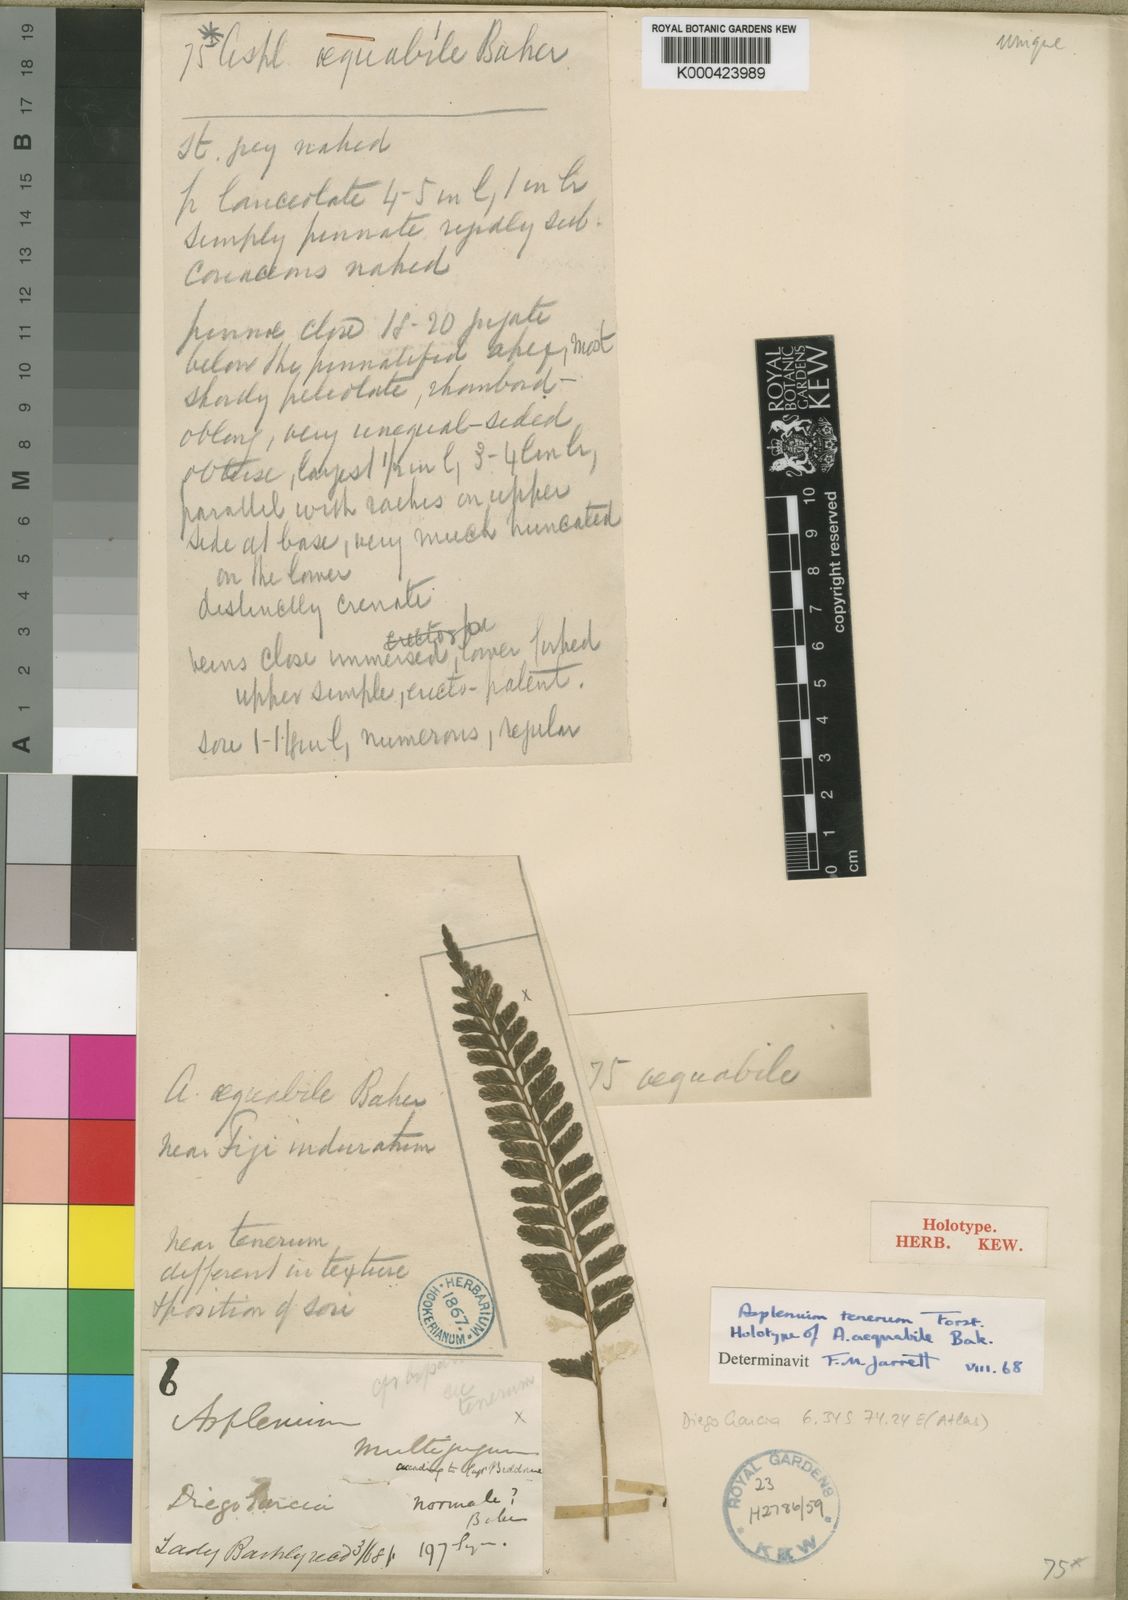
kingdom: Plantae
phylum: Tracheophyta
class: Polypodiopsida
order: Polypodiales
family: Aspleniaceae
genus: Asplenium
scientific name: Asplenium tenerum
